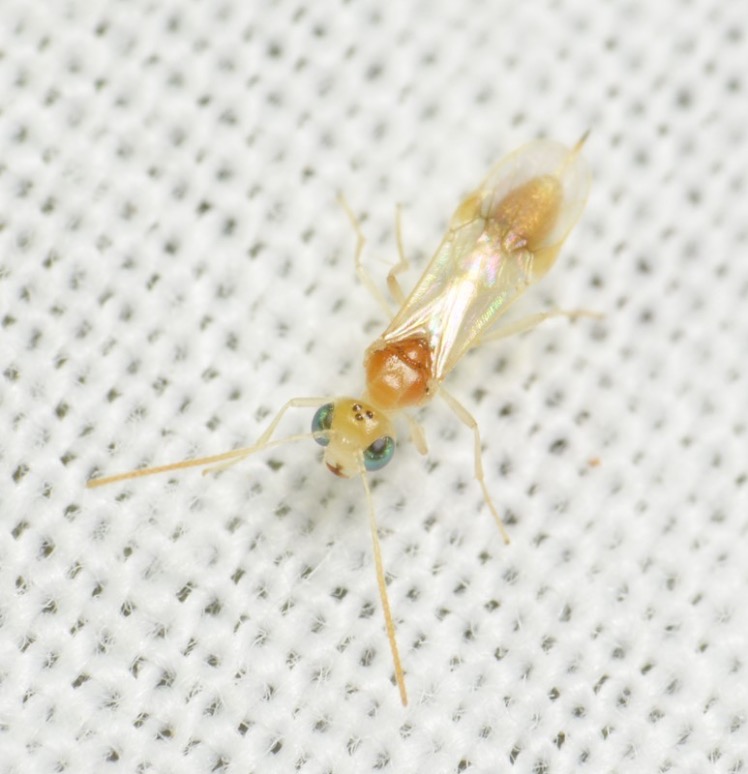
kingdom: Animalia
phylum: Arthropoda
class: Insecta
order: Hymenoptera
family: Braconidae
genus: Chrysopophthorus
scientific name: Chrysopophthorus hungaricus
